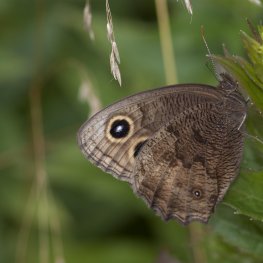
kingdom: Animalia
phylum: Arthropoda
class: Insecta
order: Lepidoptera
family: Nymphalidae
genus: Cercyonis
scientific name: Cercyonis pegala
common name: Common Wood-Nymph
